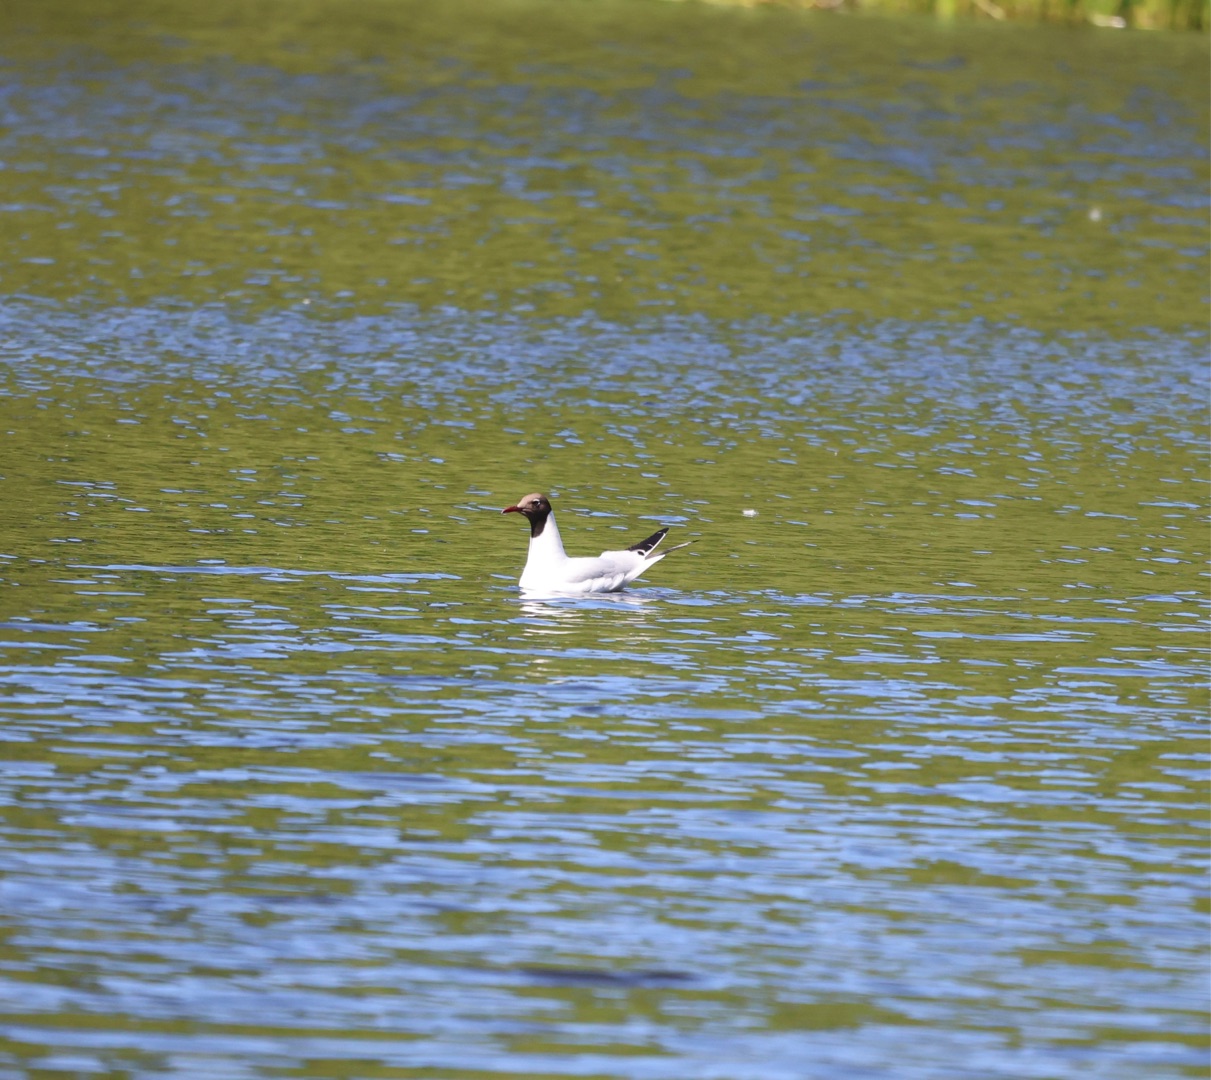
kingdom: Animalia
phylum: Chordata
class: Aves
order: Charadriiformes
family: Laridae
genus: Chroicocephalus
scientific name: Chroicocephalus ridibundus
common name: Hættemåge
